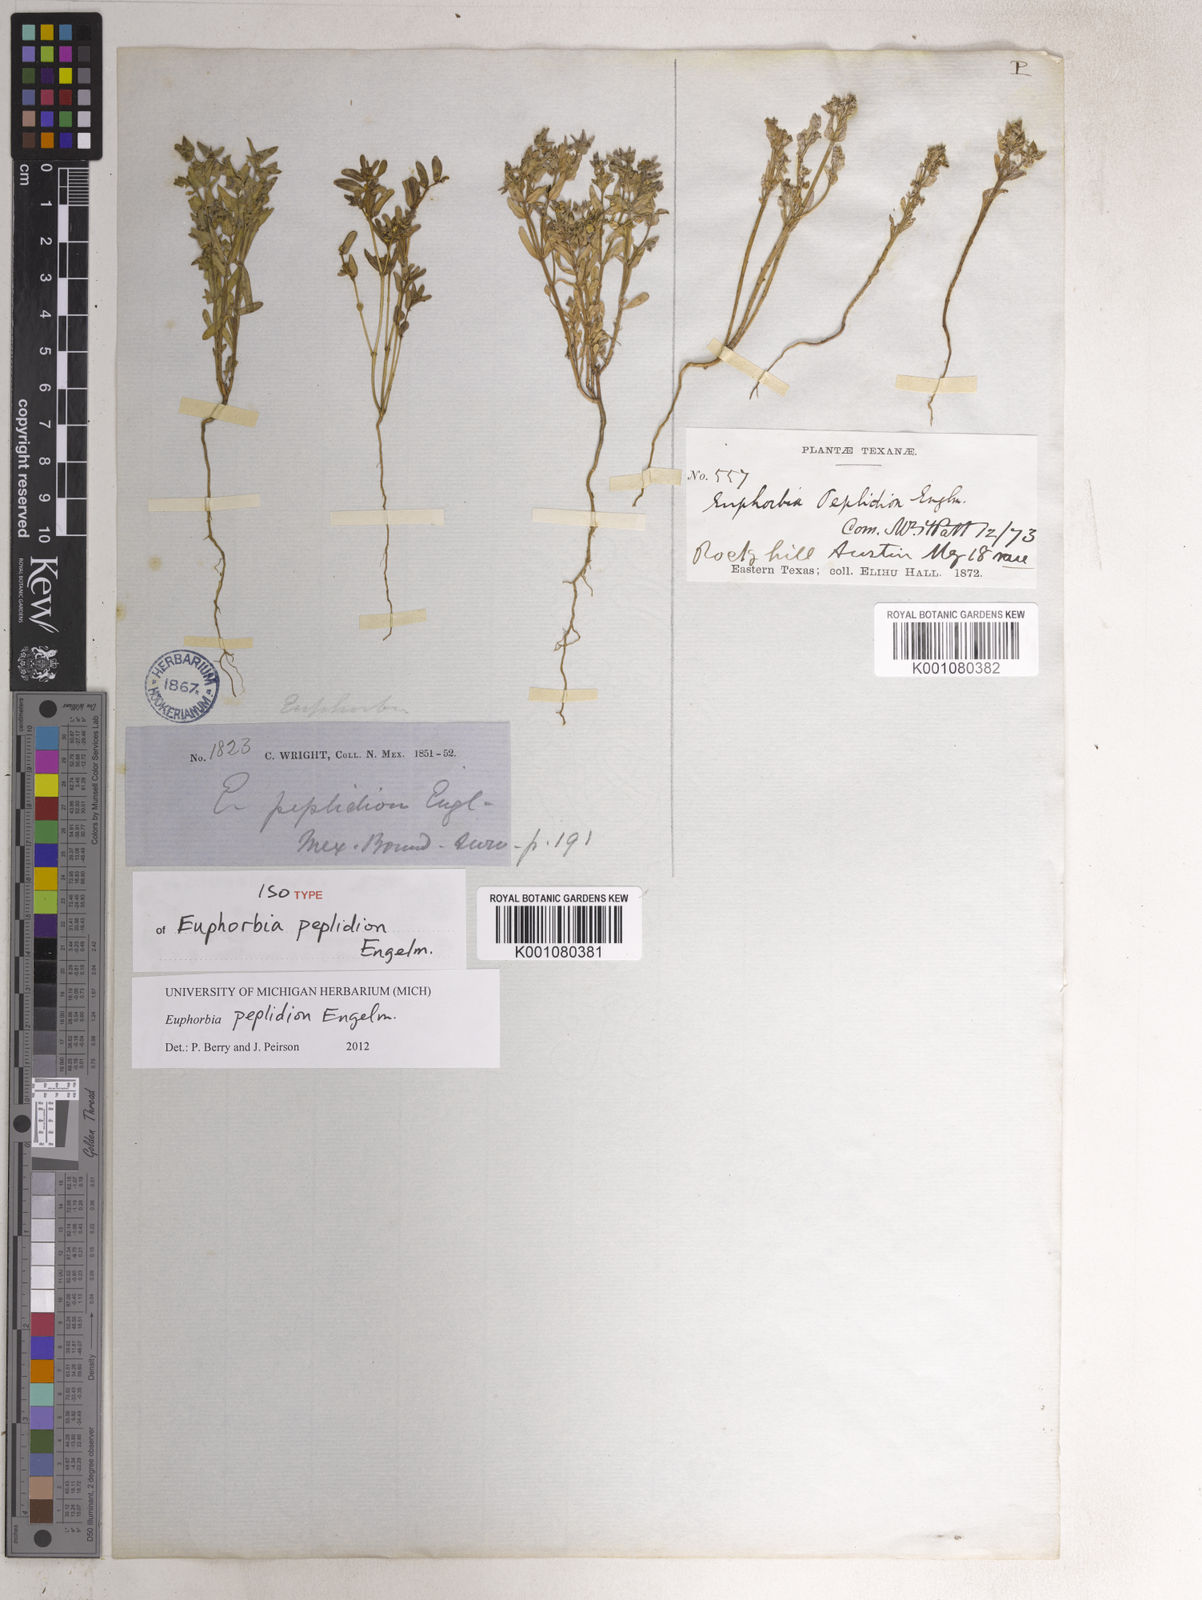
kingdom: Plantae
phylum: Tracheophyta
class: Magnoliopsida
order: Malpighiales
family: Euphorbiaceae
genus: Euphorbia
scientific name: Euphorbia peplidion
